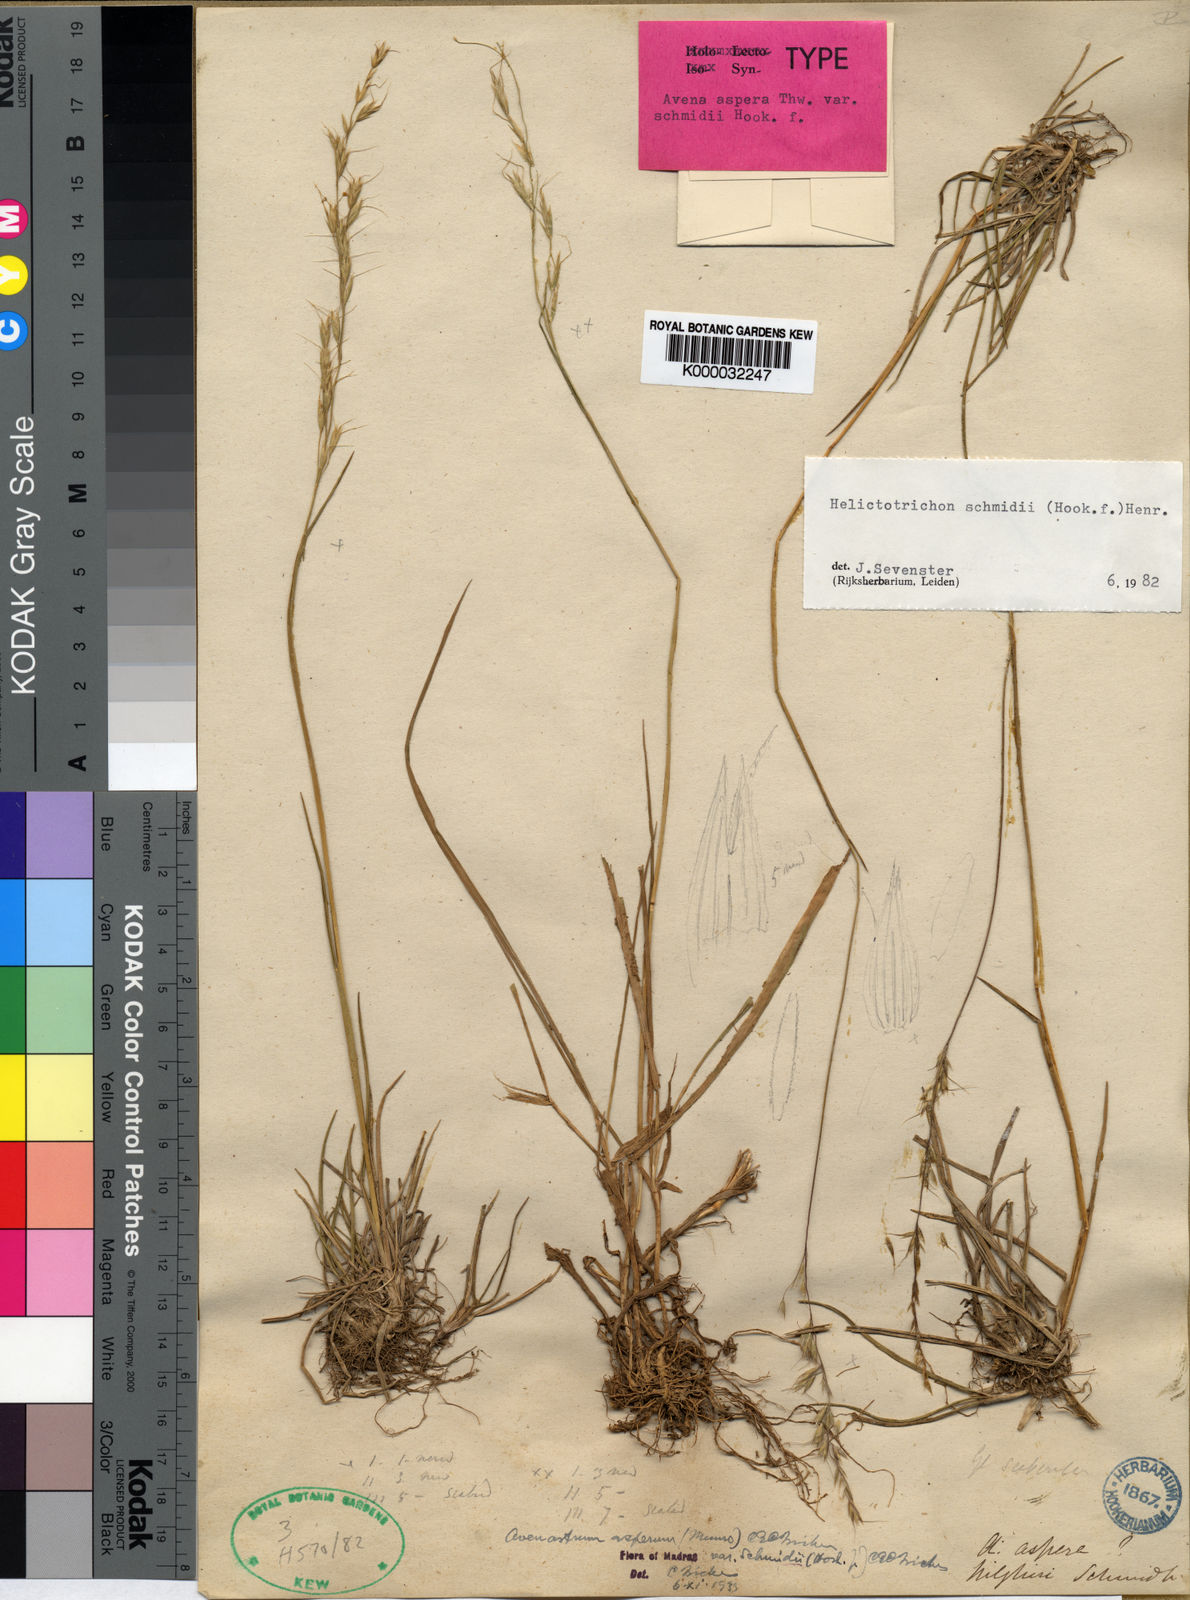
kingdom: Plantae
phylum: Tracheophyta
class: Liliopsida
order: Poales
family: Poaceae
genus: Helictotrichon
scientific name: Helictotrichon
